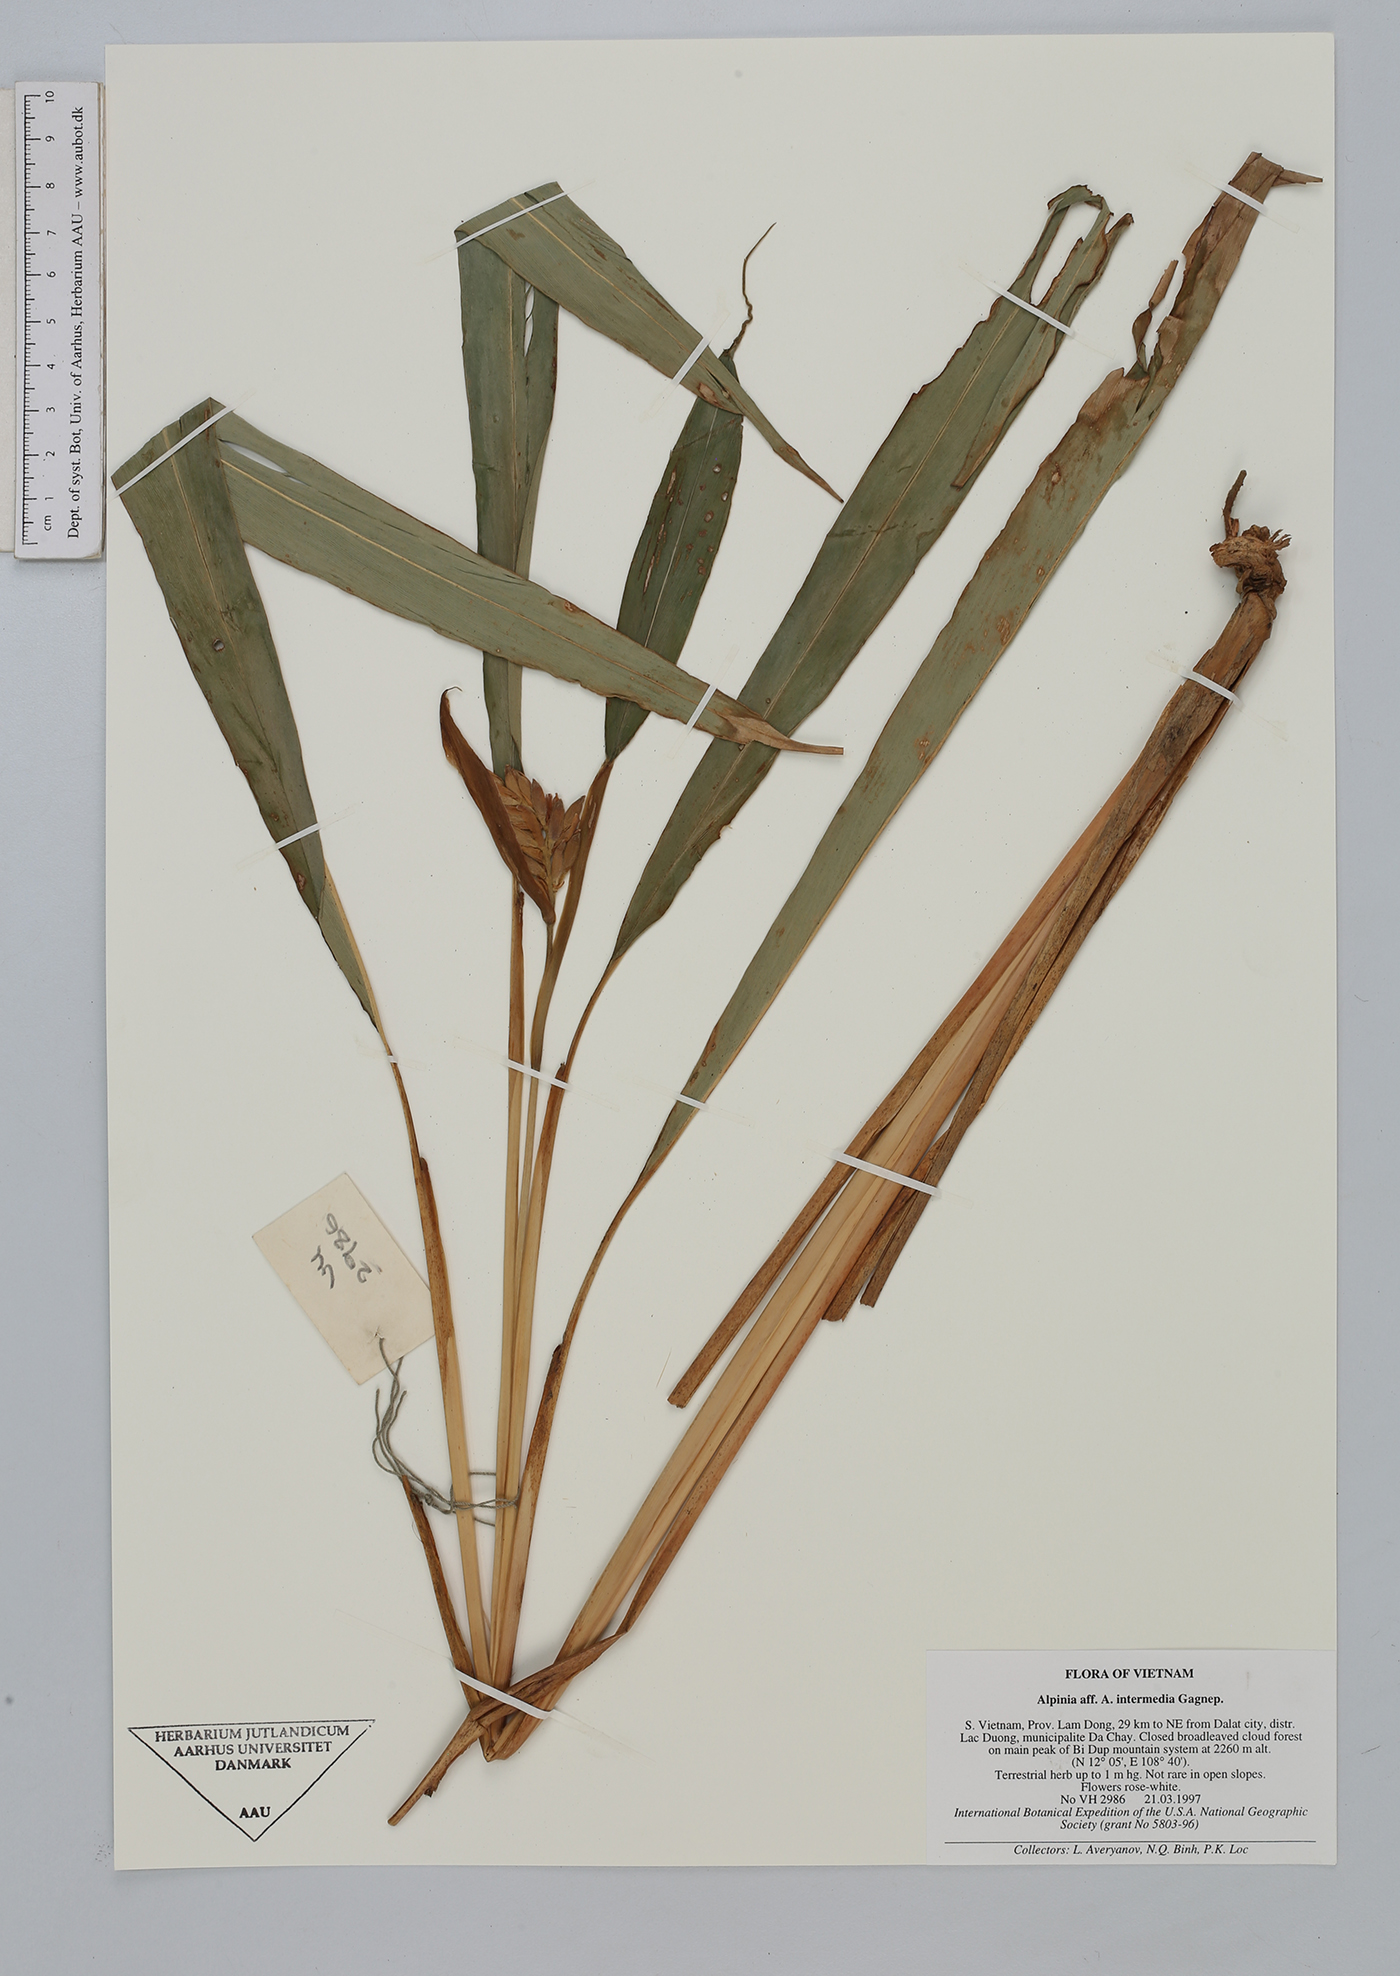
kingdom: Plantae
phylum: Tracheophyta
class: Liliopsida
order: Zingiberales
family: Zingiberaceae
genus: Alpinia
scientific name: Alpinia intermedia
